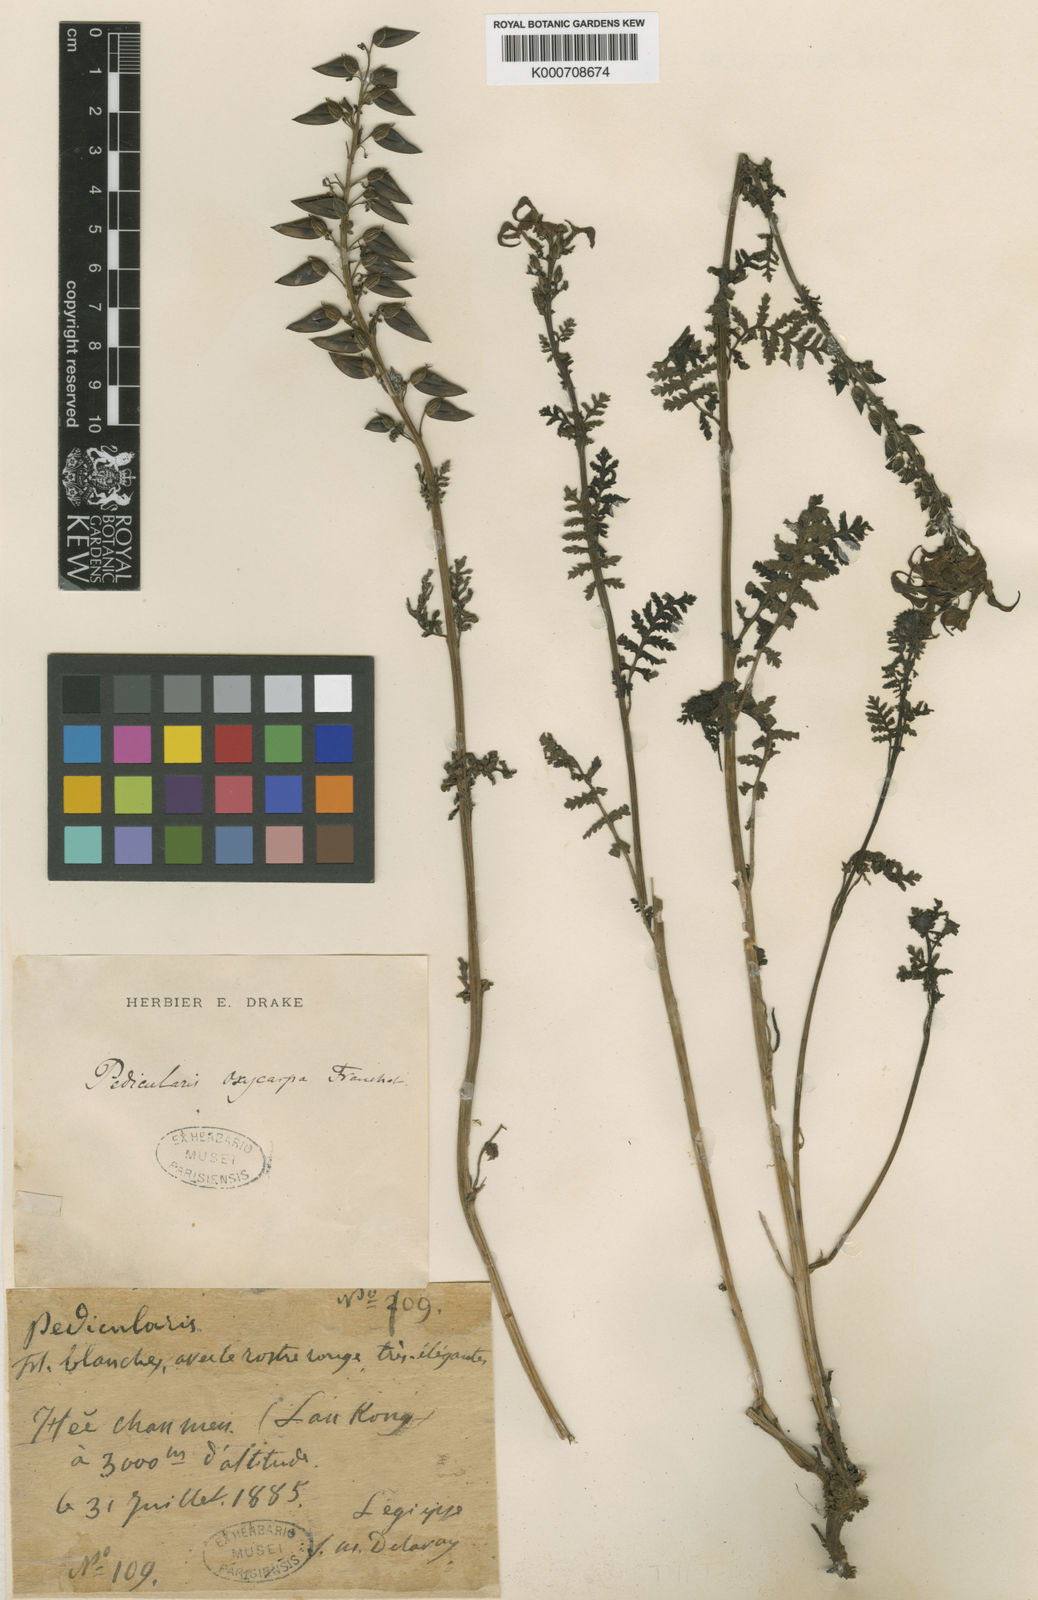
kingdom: Plantae
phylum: Tracheophyta
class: Magnoliopsida
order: Lamiales
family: Orobanchaceae
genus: Pedicularis
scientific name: Pedicularis oxycarpa
